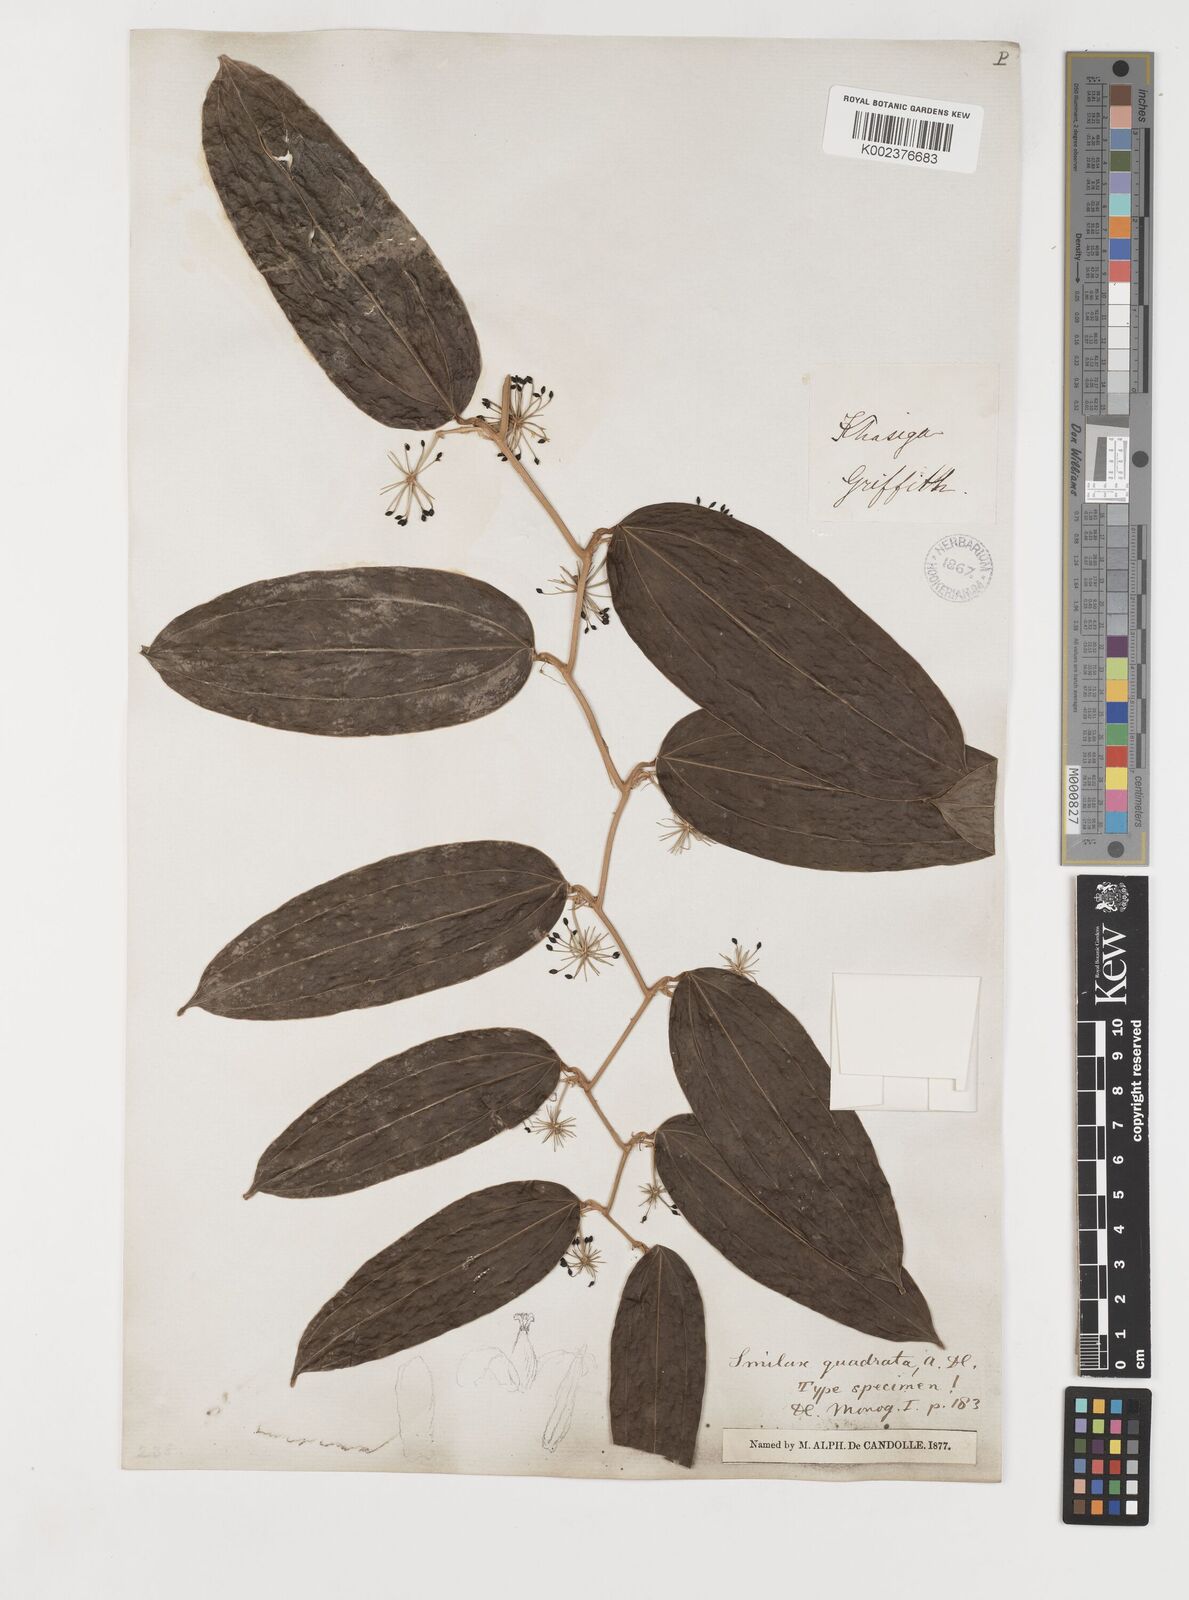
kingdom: Plantae
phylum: Tracheophyta
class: Liliopsida
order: Liliales
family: Smilacaceae
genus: Smilax
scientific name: Smilax quadrata
